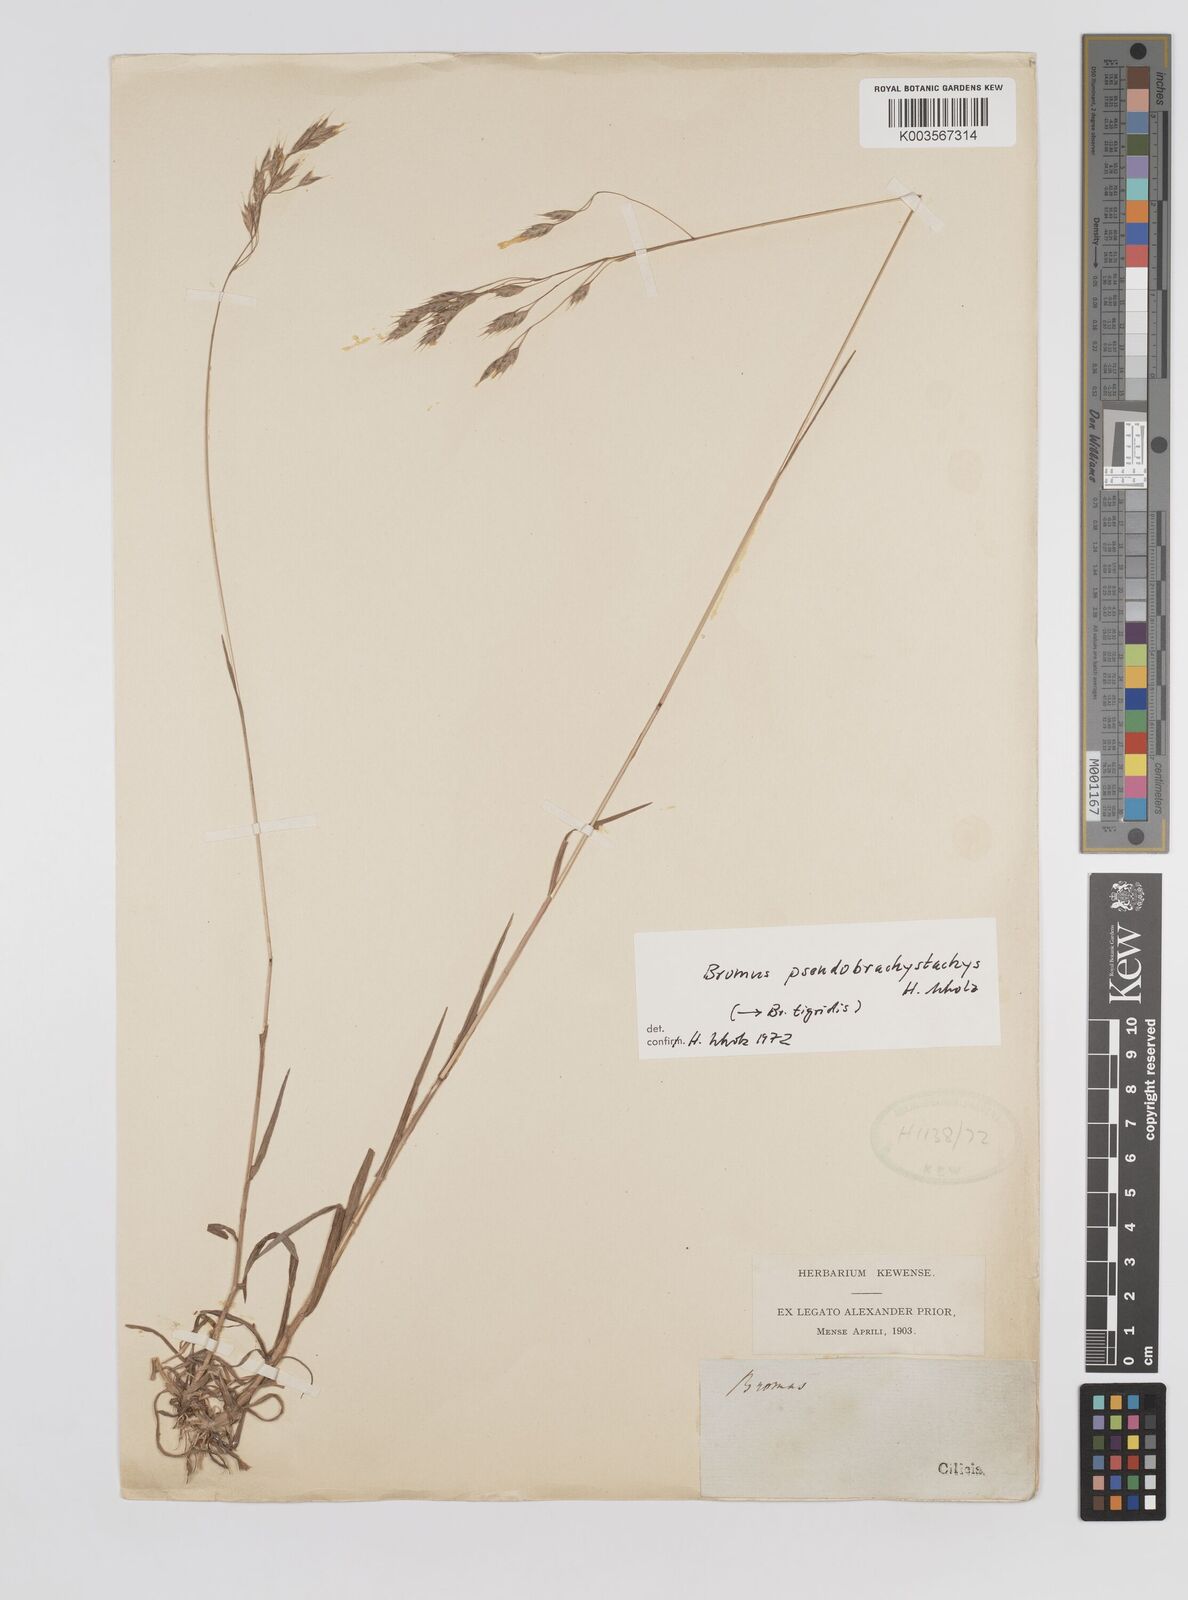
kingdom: Plantae
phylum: Tracheophyta
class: Liliopsida
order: Poales
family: Poaceae
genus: Bromus
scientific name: Bromus pseudobrachystachys
